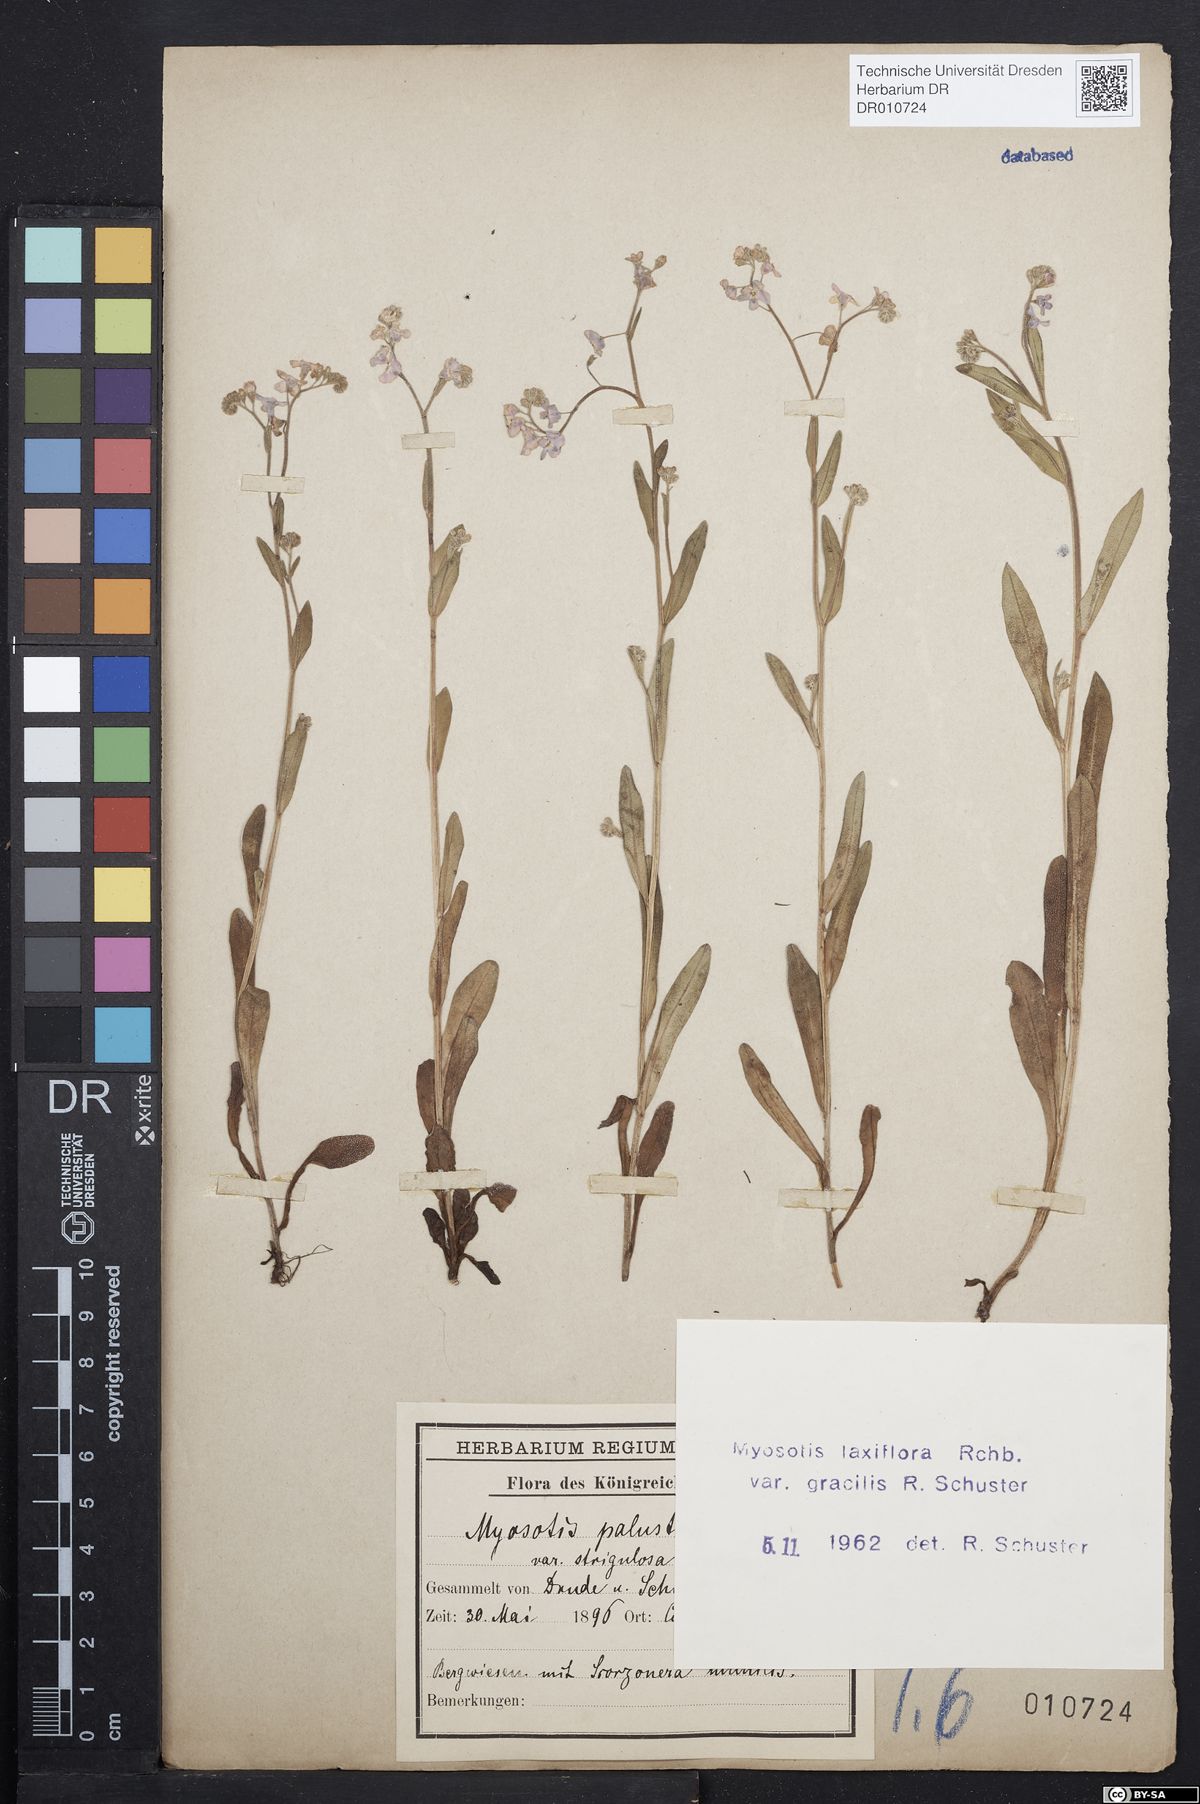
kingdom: Plantae
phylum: Tracheophyta
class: Magnoliopsida
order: Boraginales
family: Boraginaceae
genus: Myosotis
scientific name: Myosotis scorpioides
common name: Water forget-me-not
